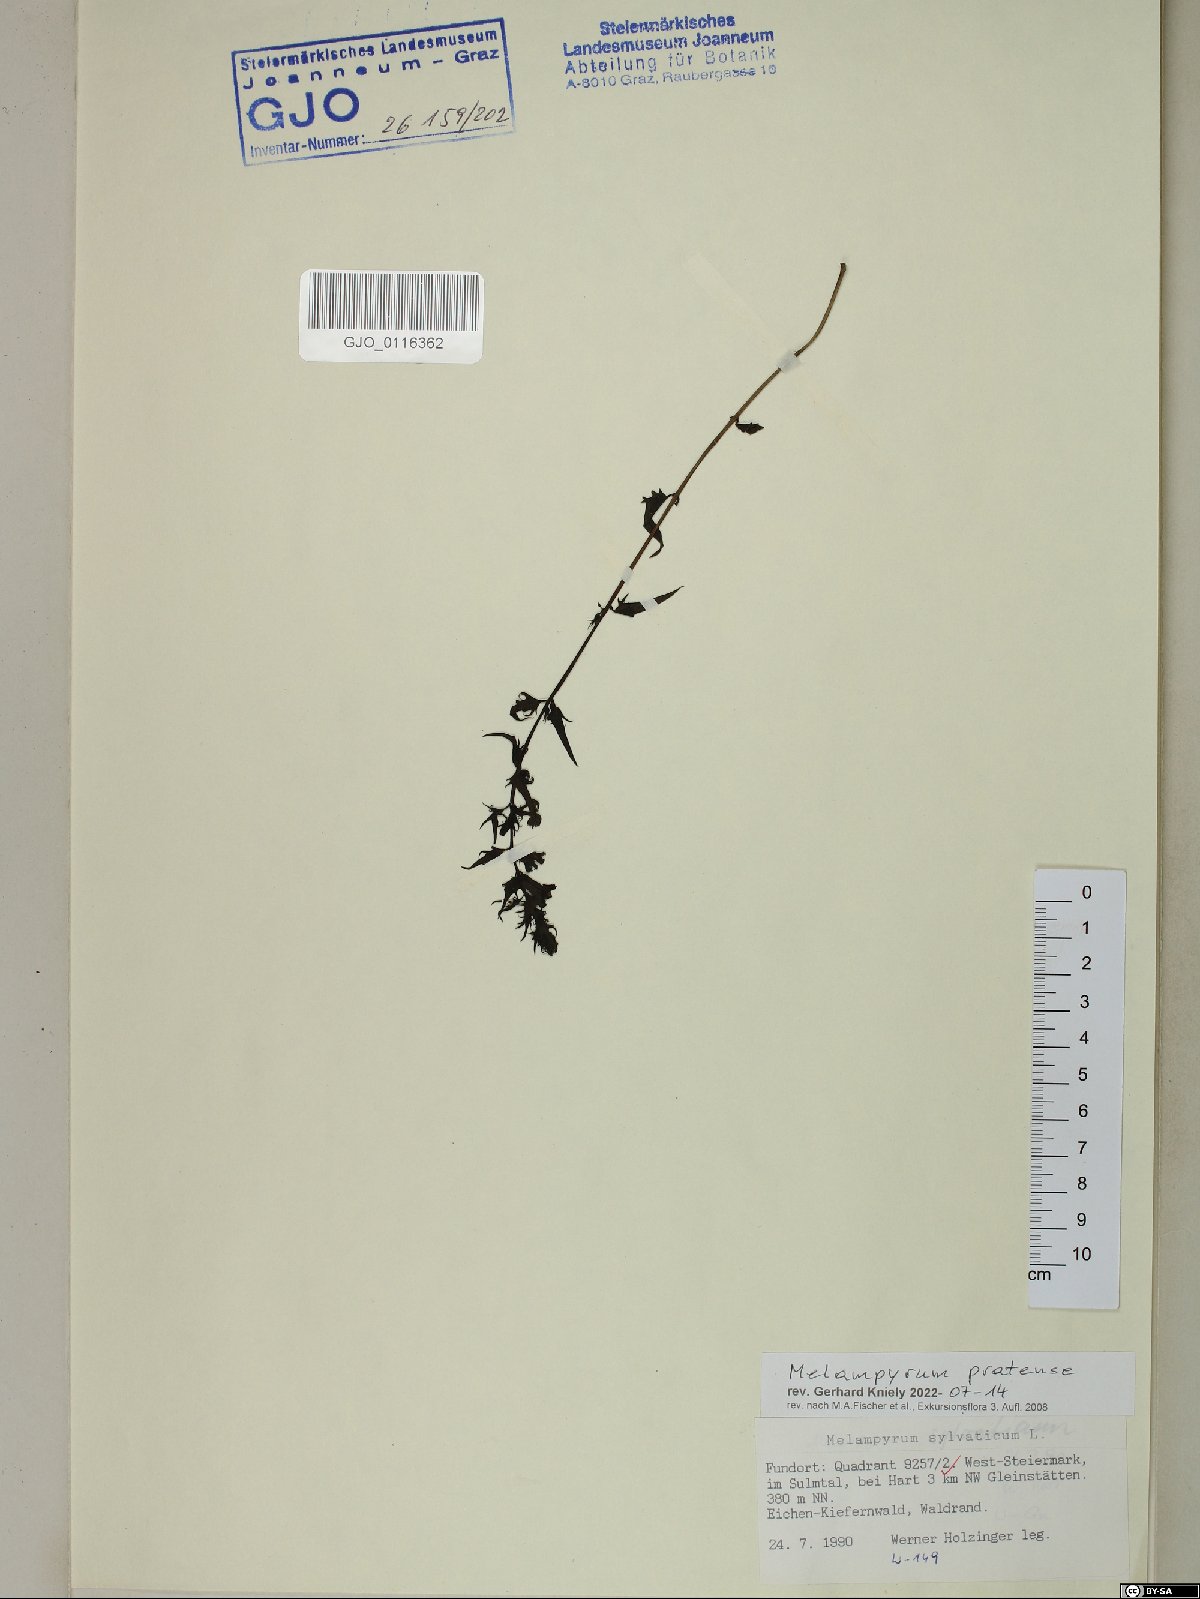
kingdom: Plantae
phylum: Tracheophyta
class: Magnoliopsida
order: Lamiales
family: Orobanchaceae
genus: Melampyrum
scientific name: Melampyrum pratense
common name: Common cow-wheat
